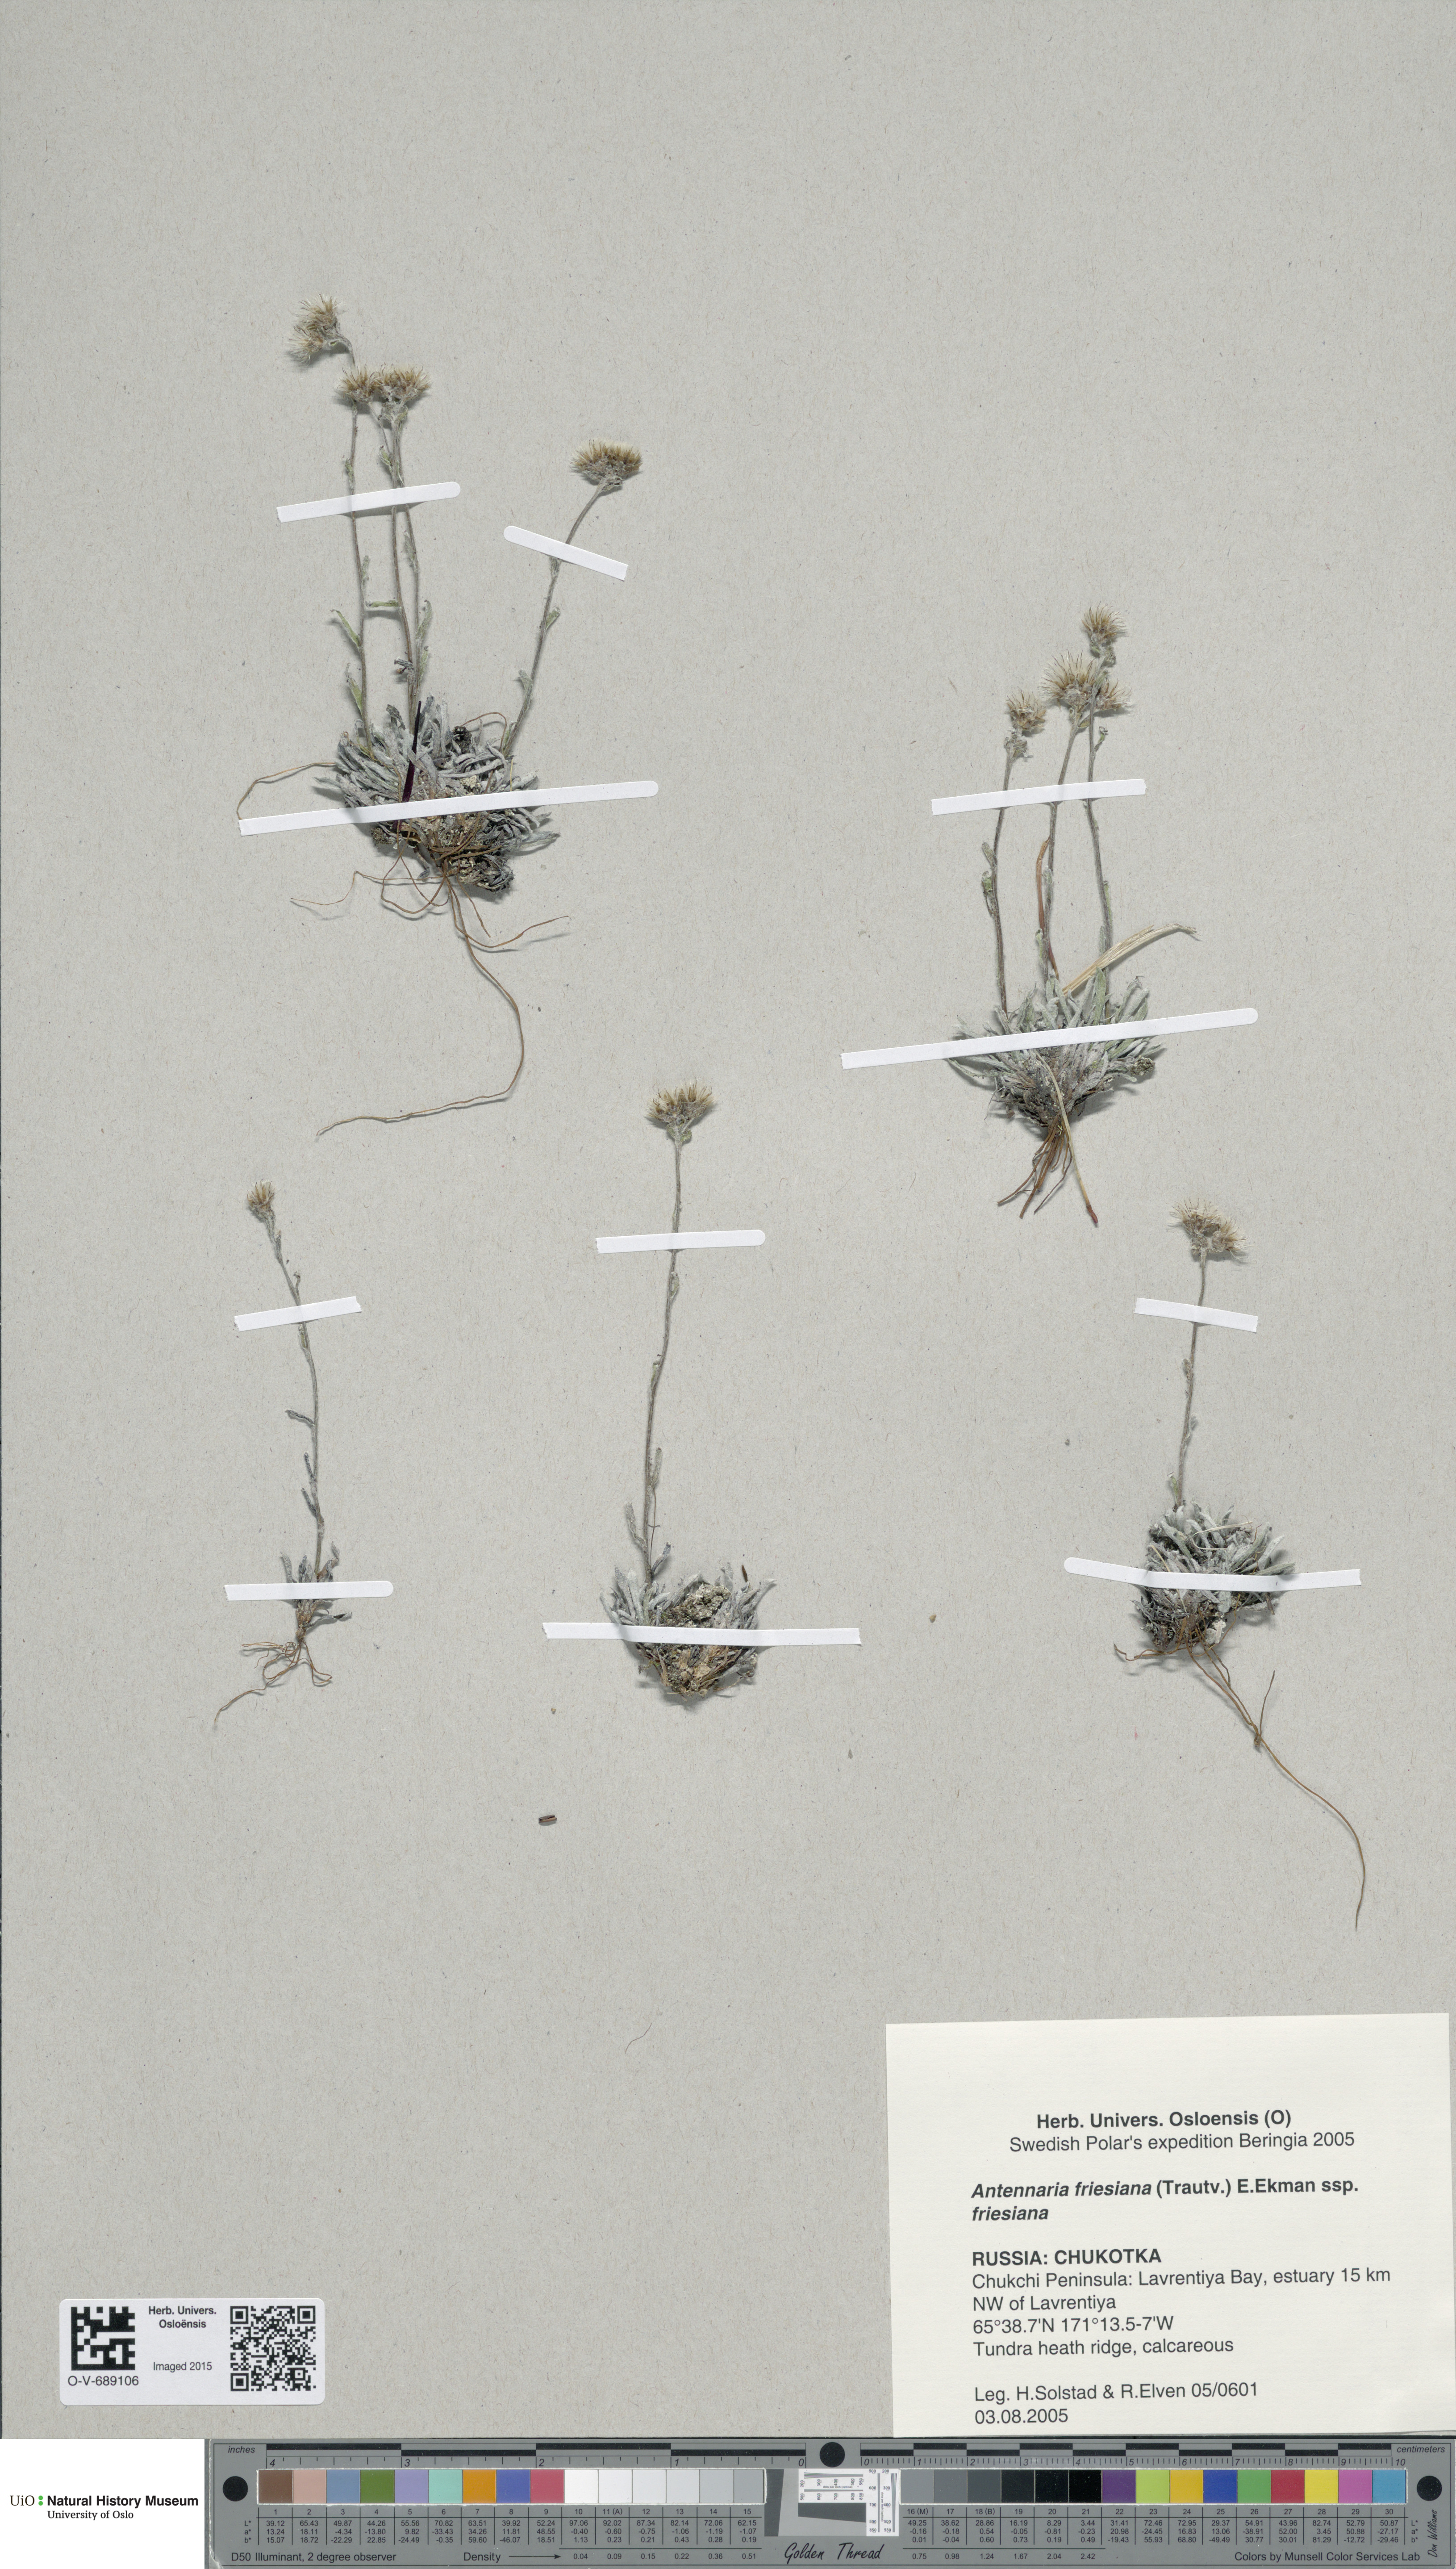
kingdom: Plantae
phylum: Tracheophyta
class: Magnoliopsida
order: Asterales
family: Asteraceae
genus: Antennaria
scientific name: Antennaria friesiana
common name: Fries' pussytoes
